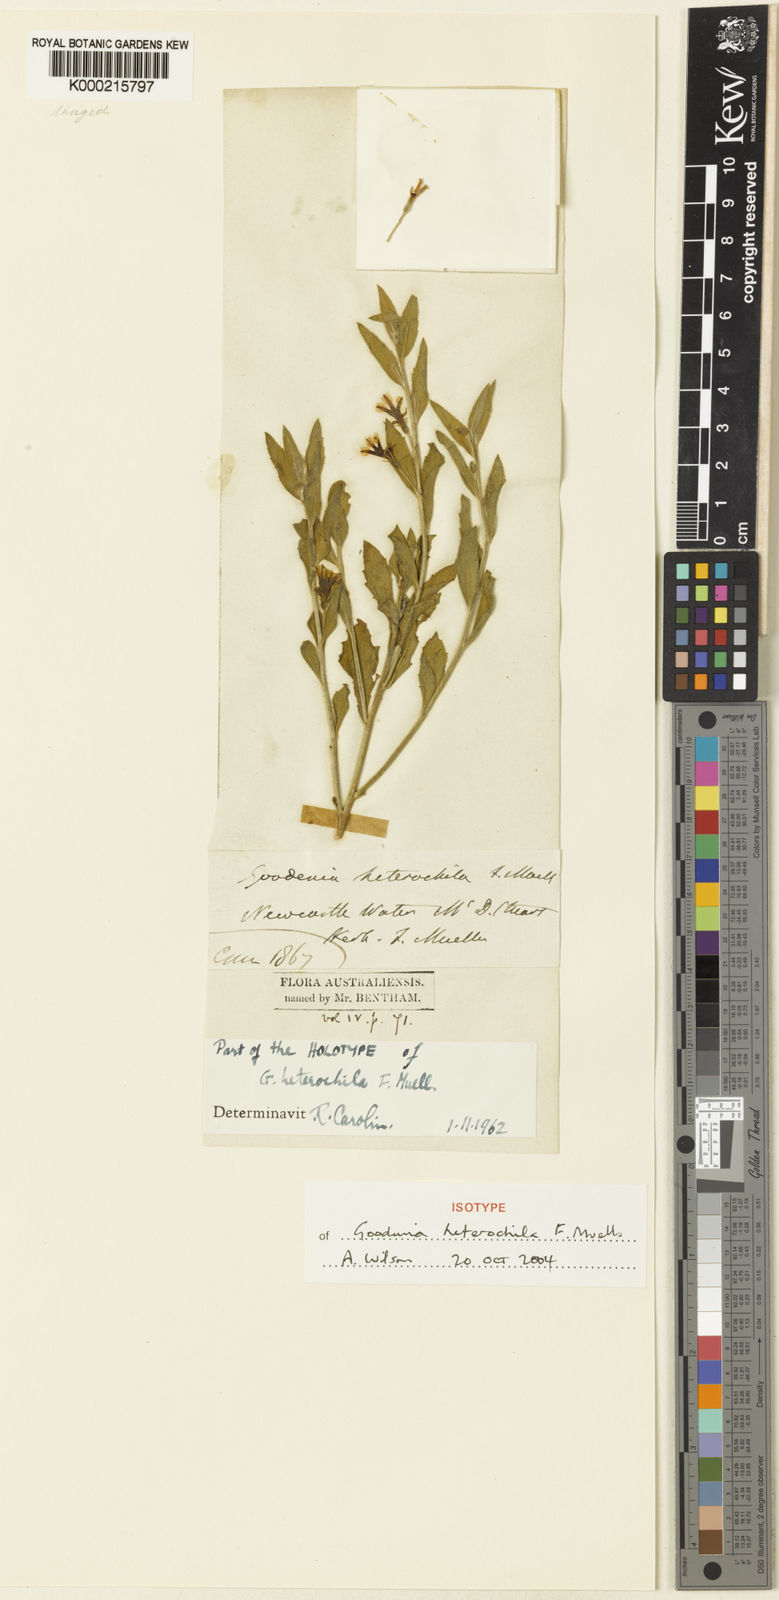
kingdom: Plantae
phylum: Tracheophyta
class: Magnoliopsida
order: Asterales
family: Goodeniaceae
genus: Goodenia
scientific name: Goodenia heterochila
